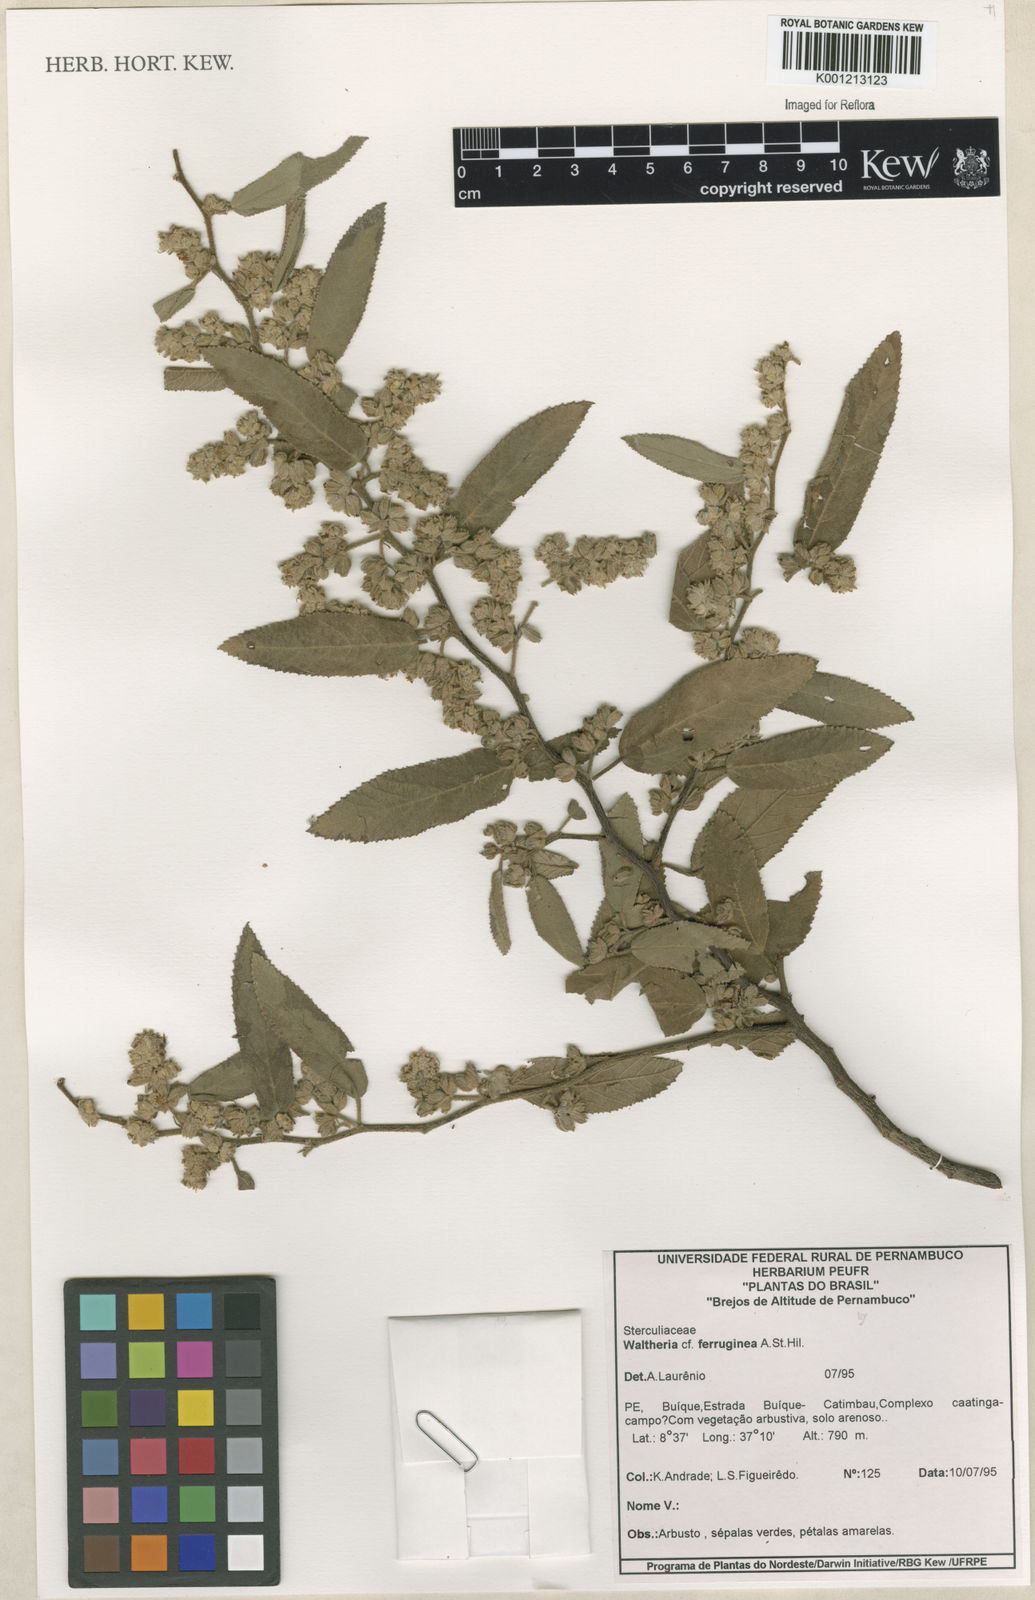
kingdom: Plantae
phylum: Tracheophyta
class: Magnoliopsida
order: Malvales
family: Malvaceae
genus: Waltheria
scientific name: Waltheria ferruginea
